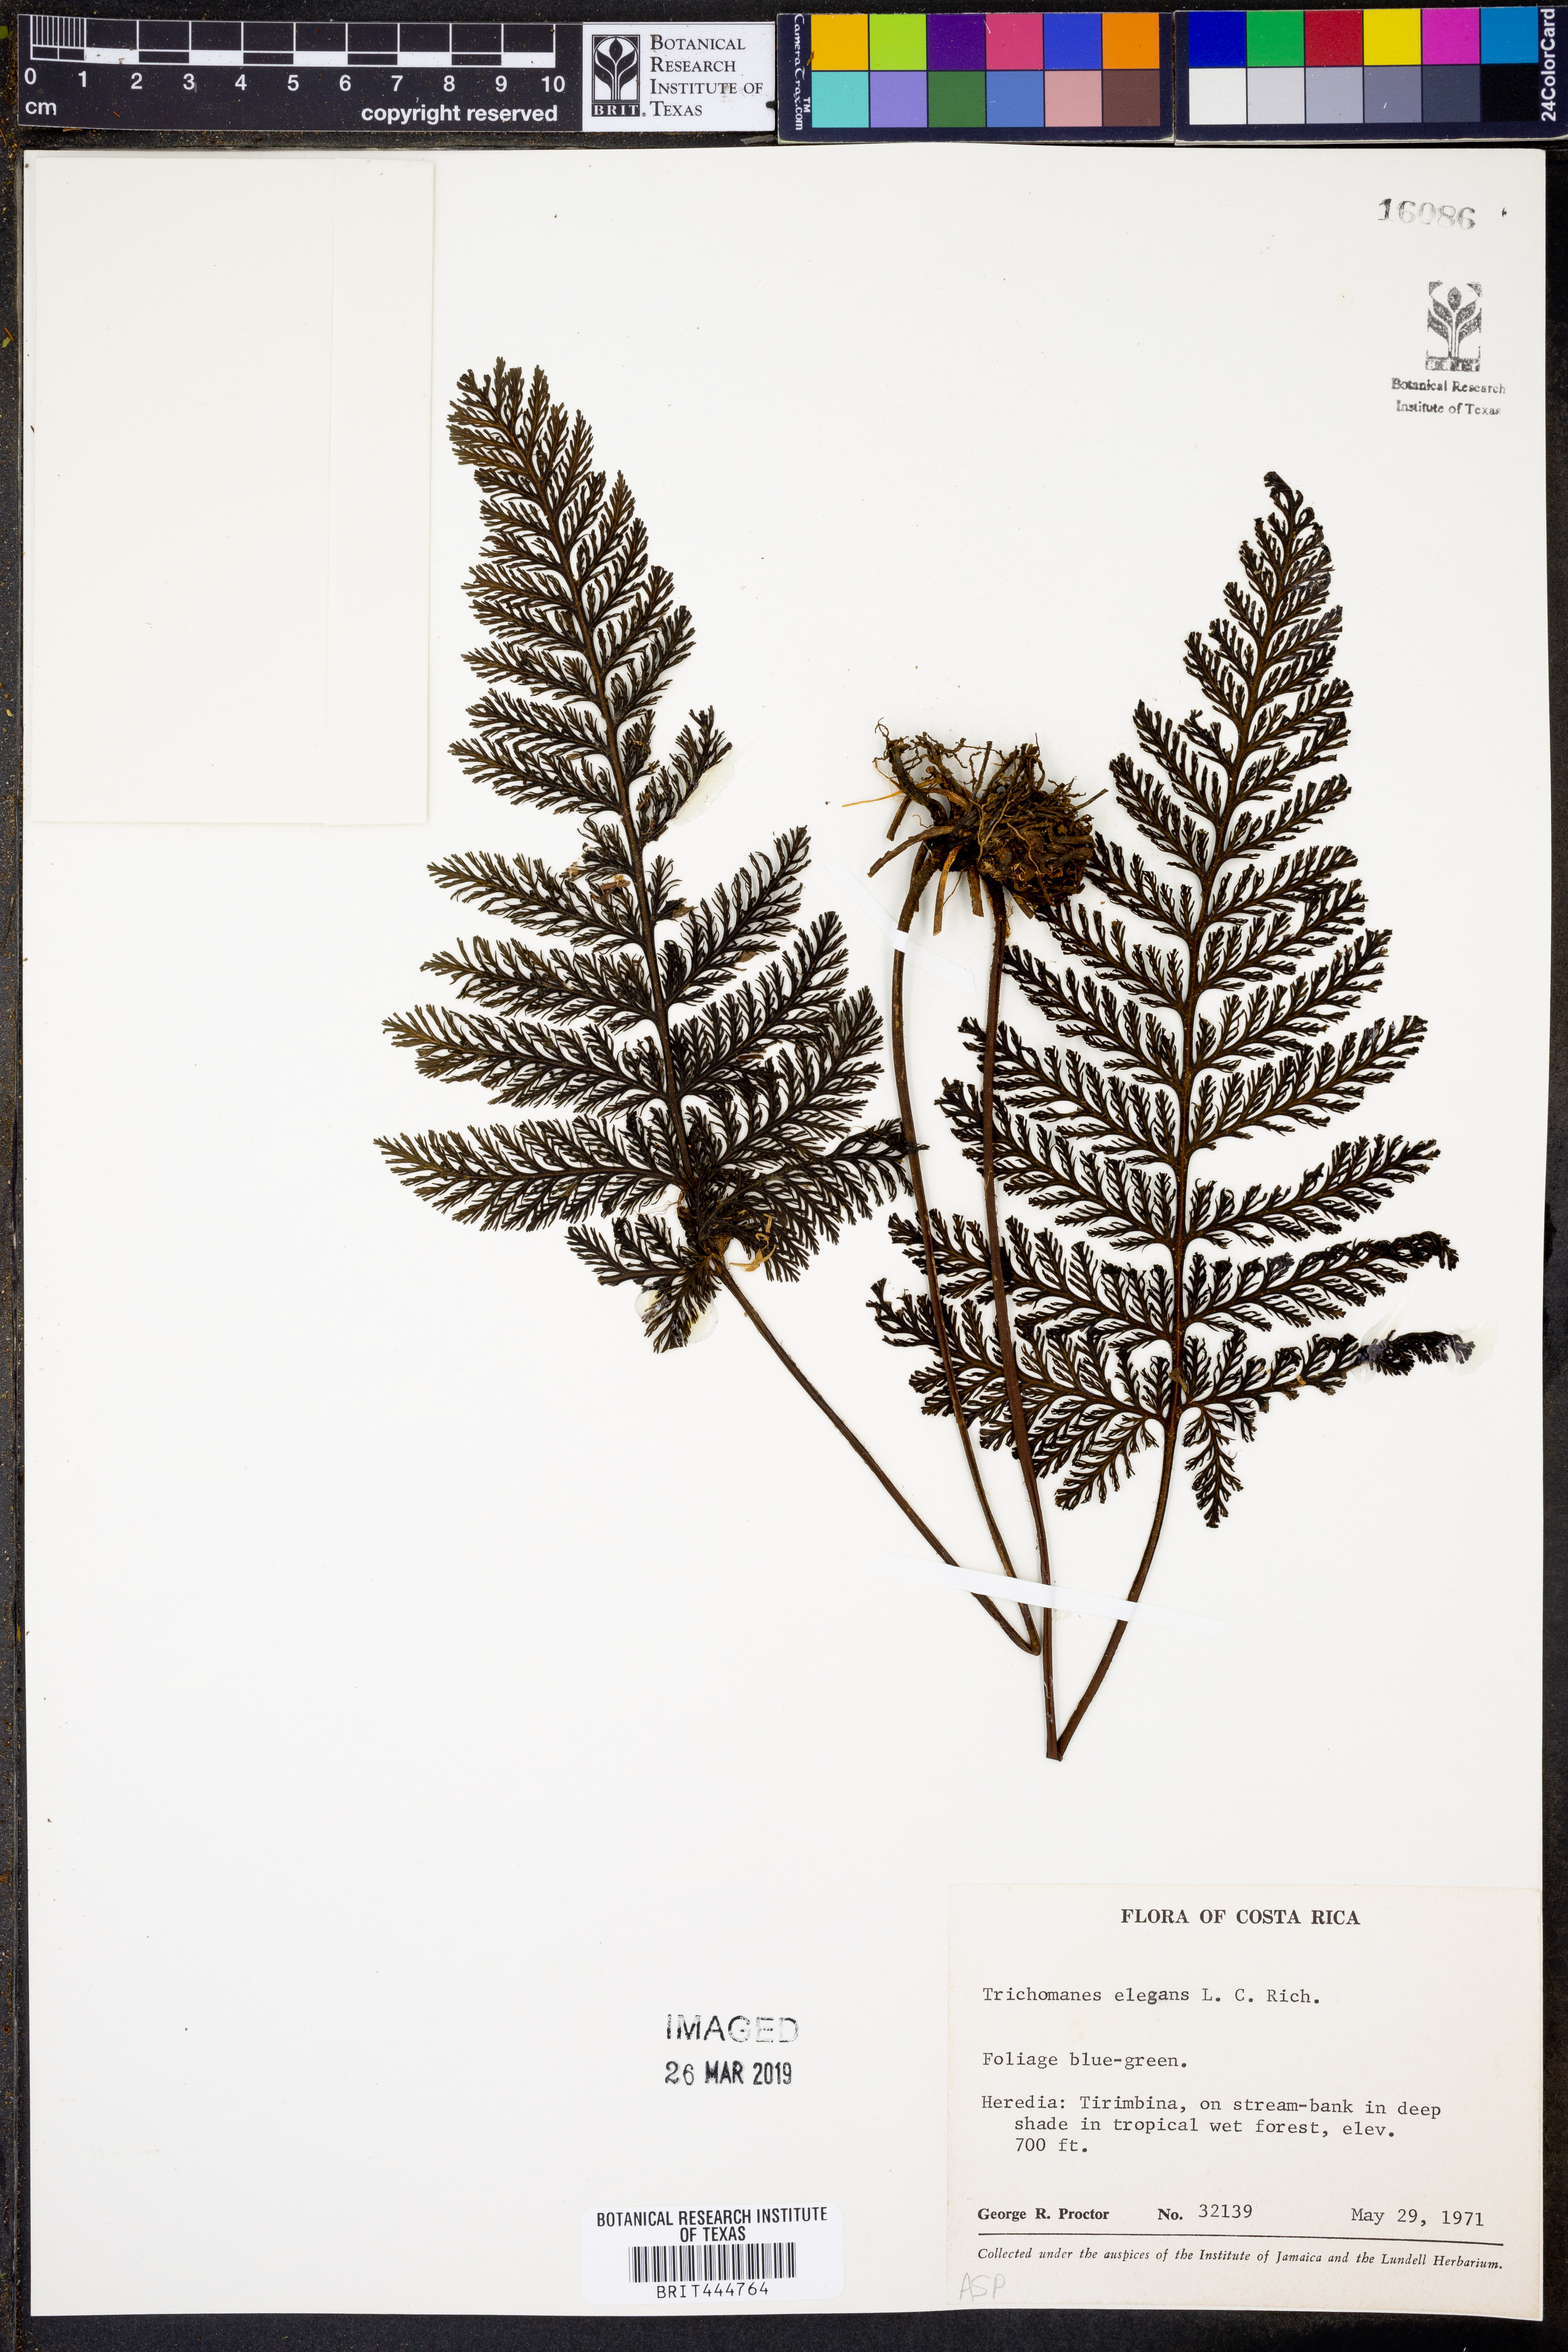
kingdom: Plantae
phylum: Tracheophyta
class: Polypodiopsida
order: Hymenophyllales
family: Hymenophyllaceae
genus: Trichomanes
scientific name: Trichomanes elegans
